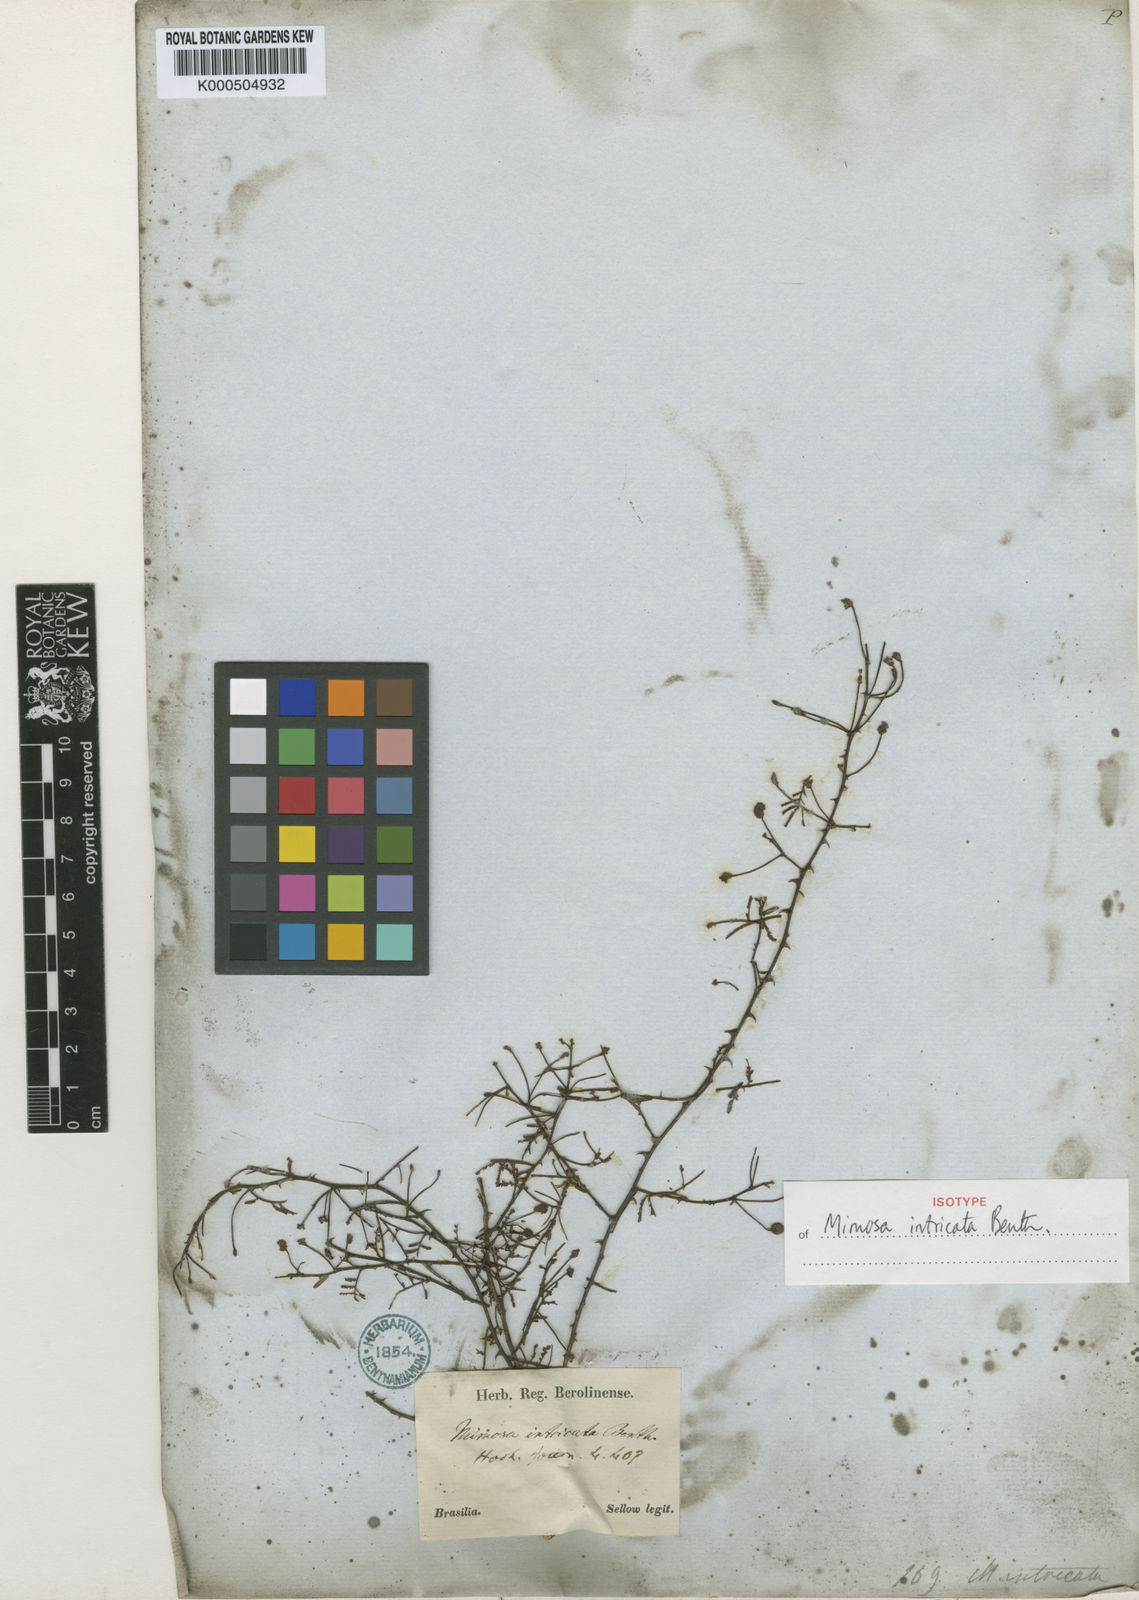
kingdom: Plantae
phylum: Tracheophyta
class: Magnoliopsida
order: Fabales
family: Fabaceae
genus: Mimosa
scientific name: Mimosa intricata
